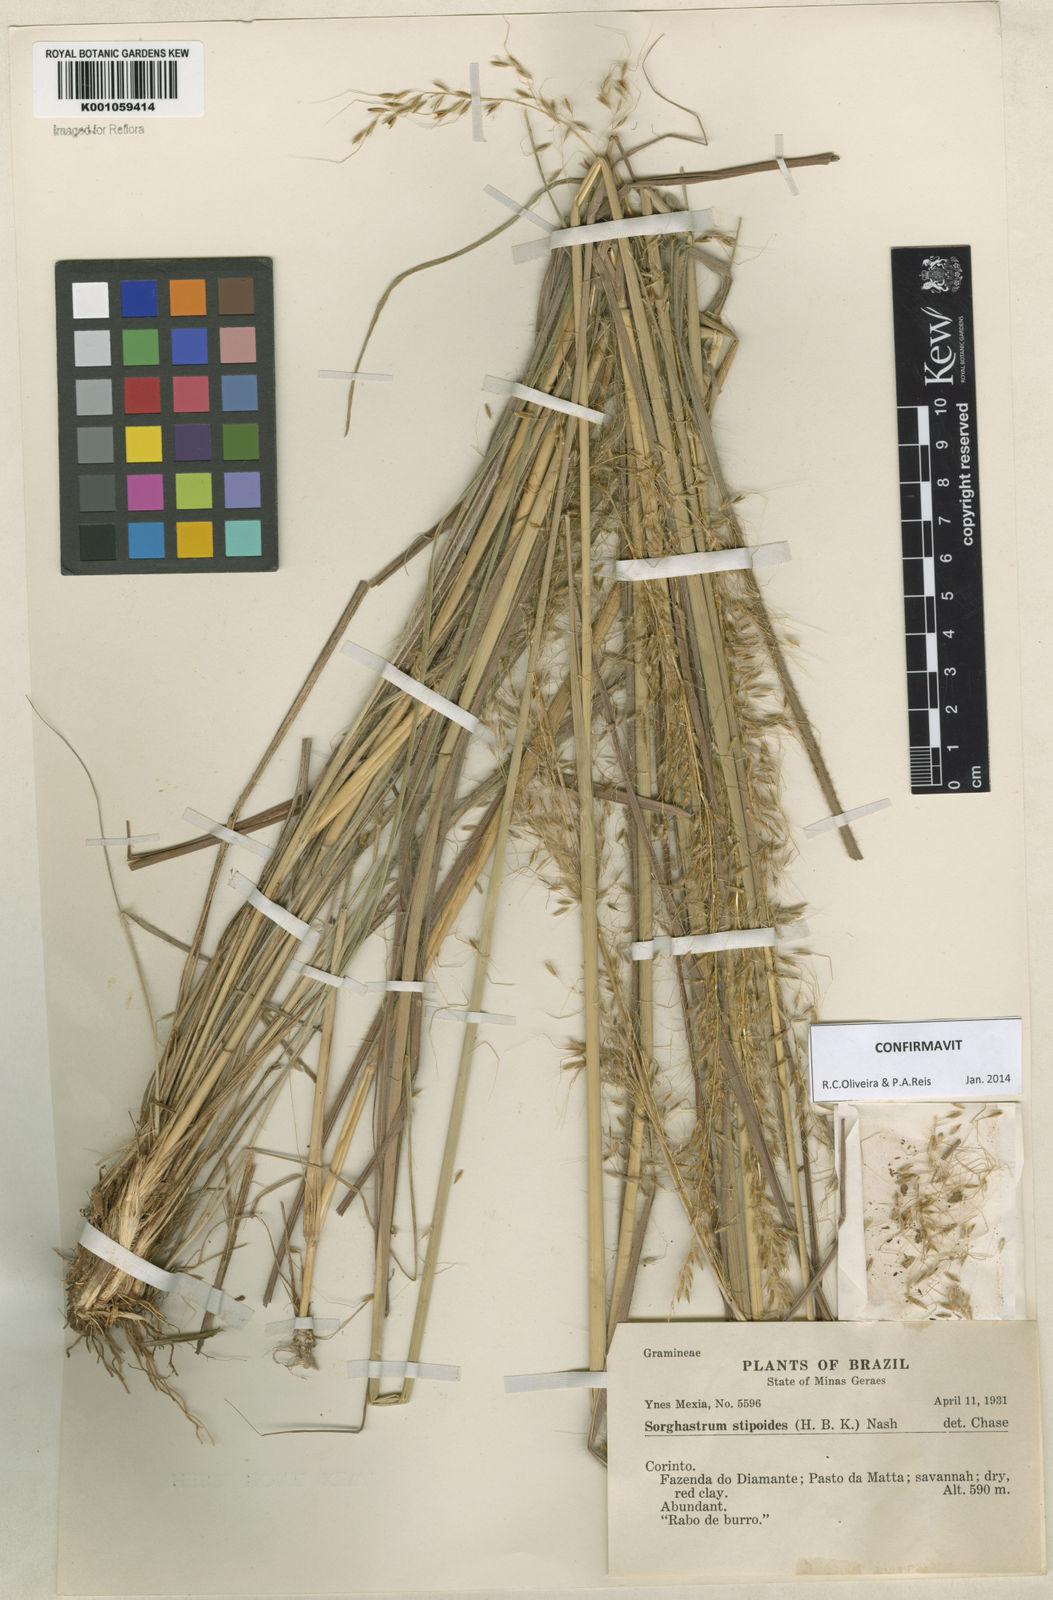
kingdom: Plantae
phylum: Tracheophyta
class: Liliopsida
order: Poales
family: Poaceae
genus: Sorghastrum
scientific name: Sorghastrum stipoides
